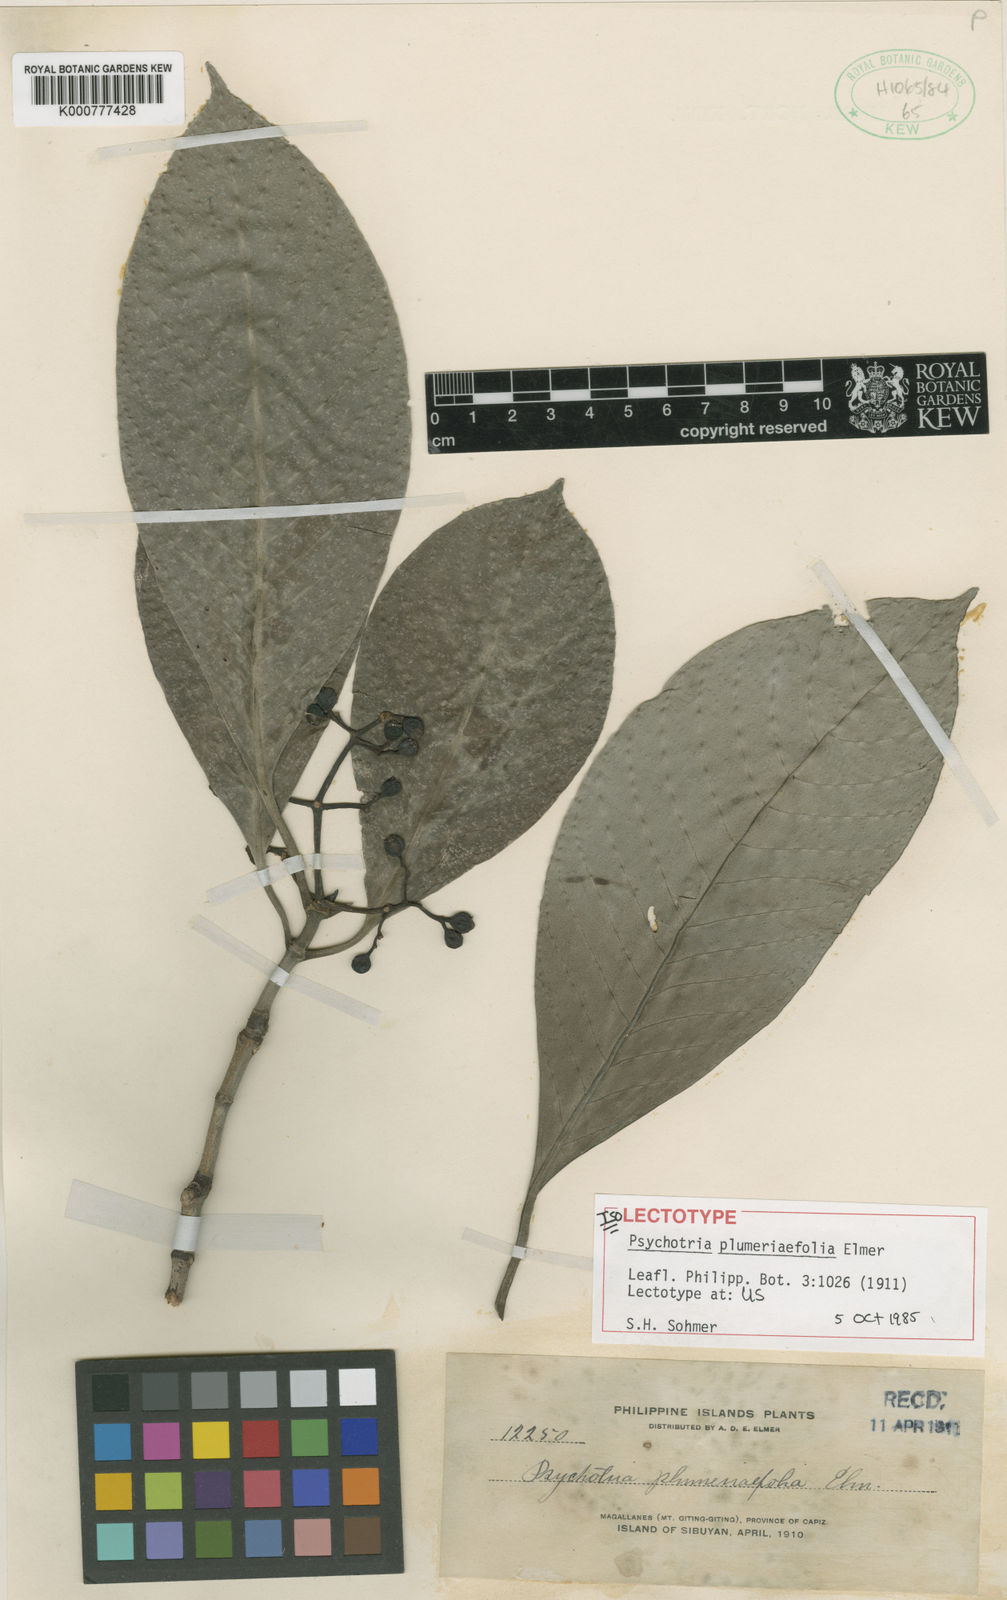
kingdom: Plantae
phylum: Tracheophyta
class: Magnoliopsida
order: Gentianales
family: Rubiaceae
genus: Psychotria
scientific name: Psychotria plumeriifolia
